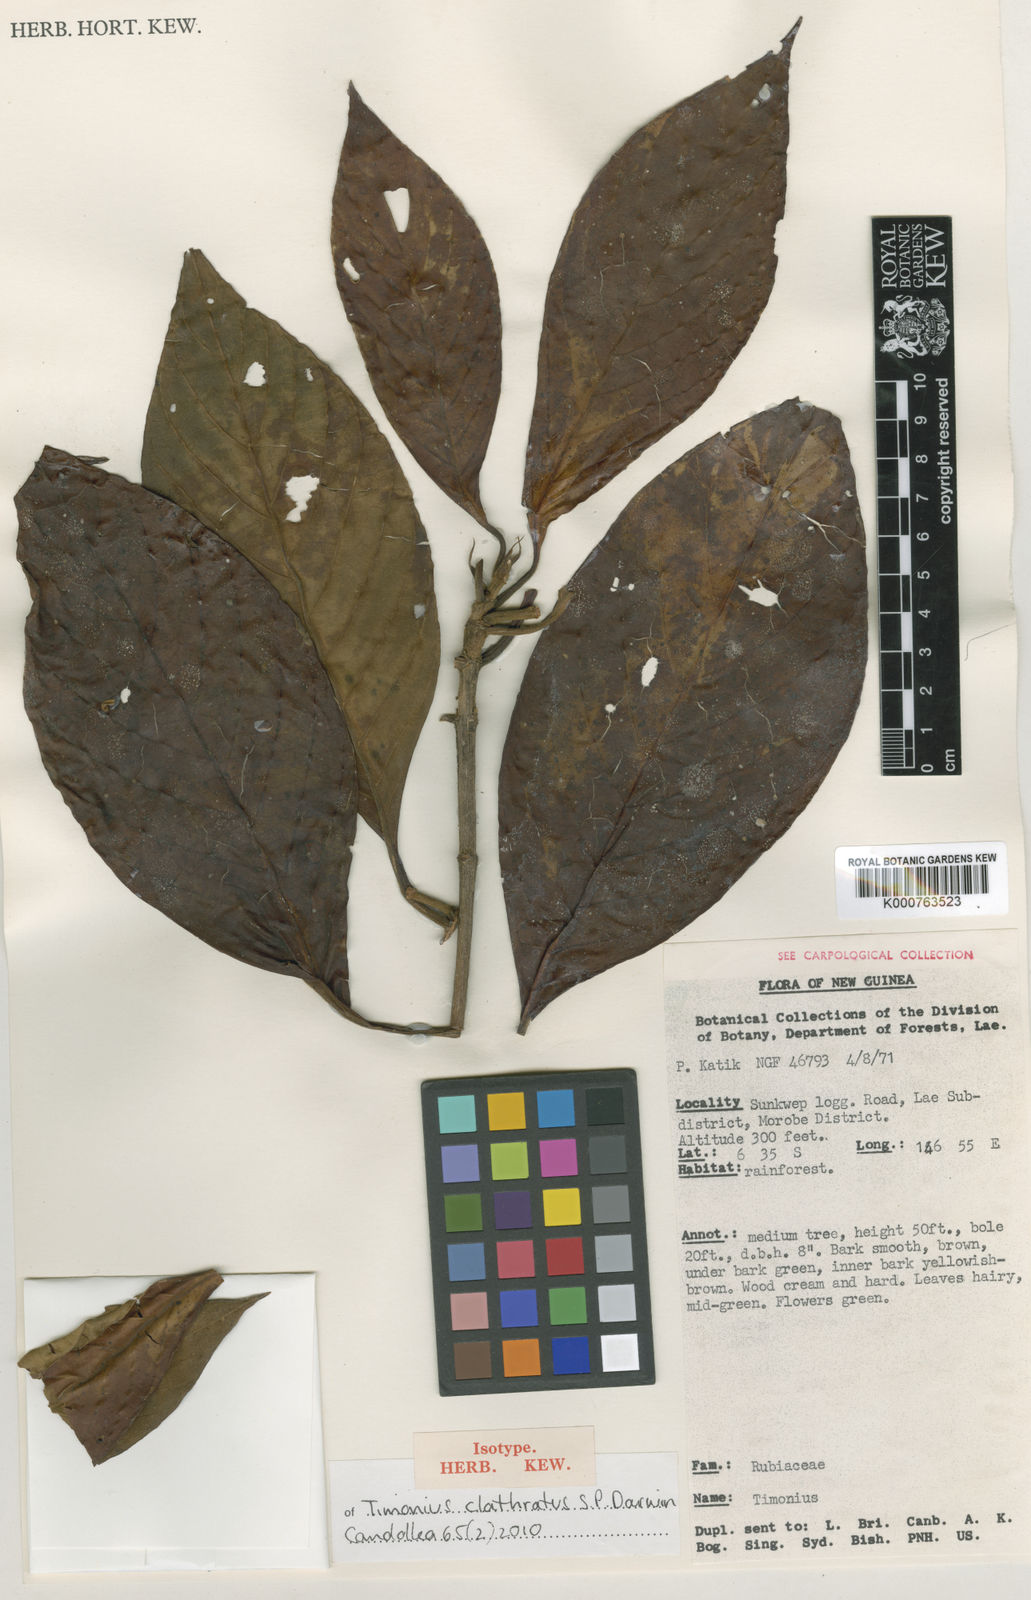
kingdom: Plantae
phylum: Tracheophyta
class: Magnoliopsida
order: Gentianales
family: Rubiaceae
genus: Timonius
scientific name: Timonius clathratus
